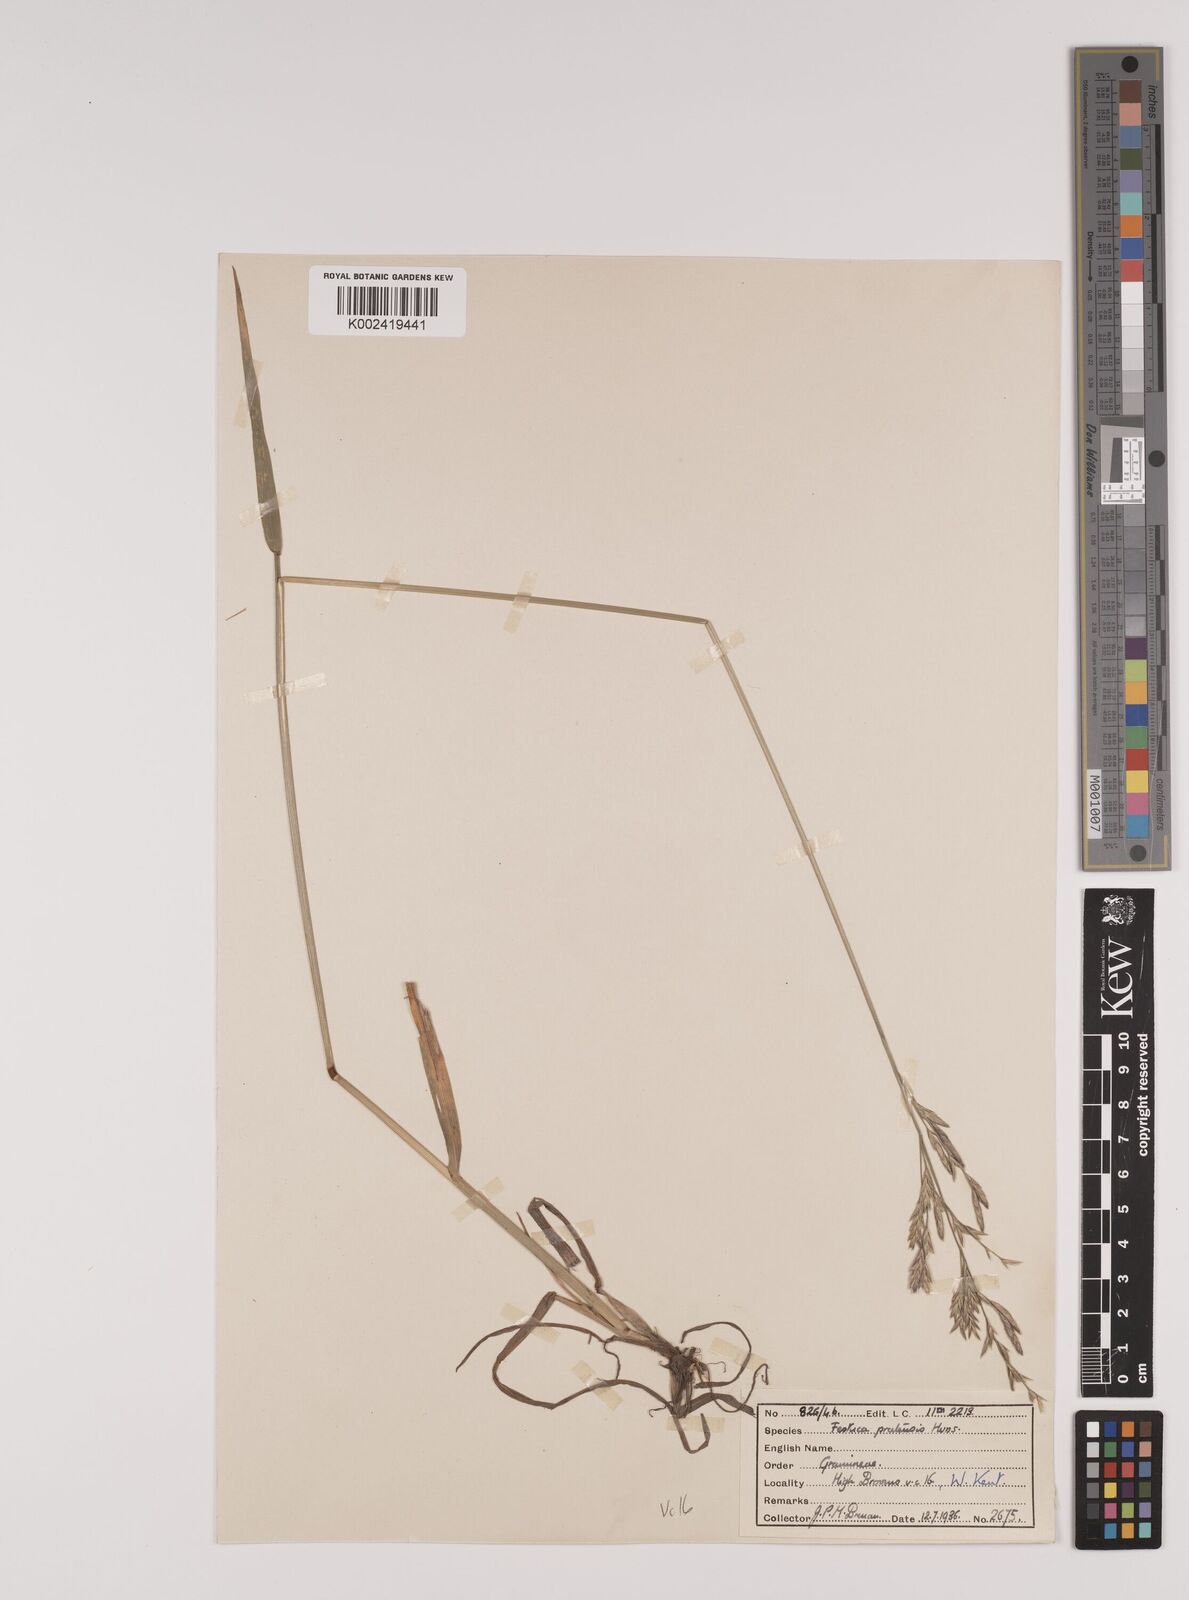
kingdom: Plantae
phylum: Tracheophyta
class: Liliopsida
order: Poales
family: Poaceae
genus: Lolium
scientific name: Lolium pratense
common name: Dover grass
